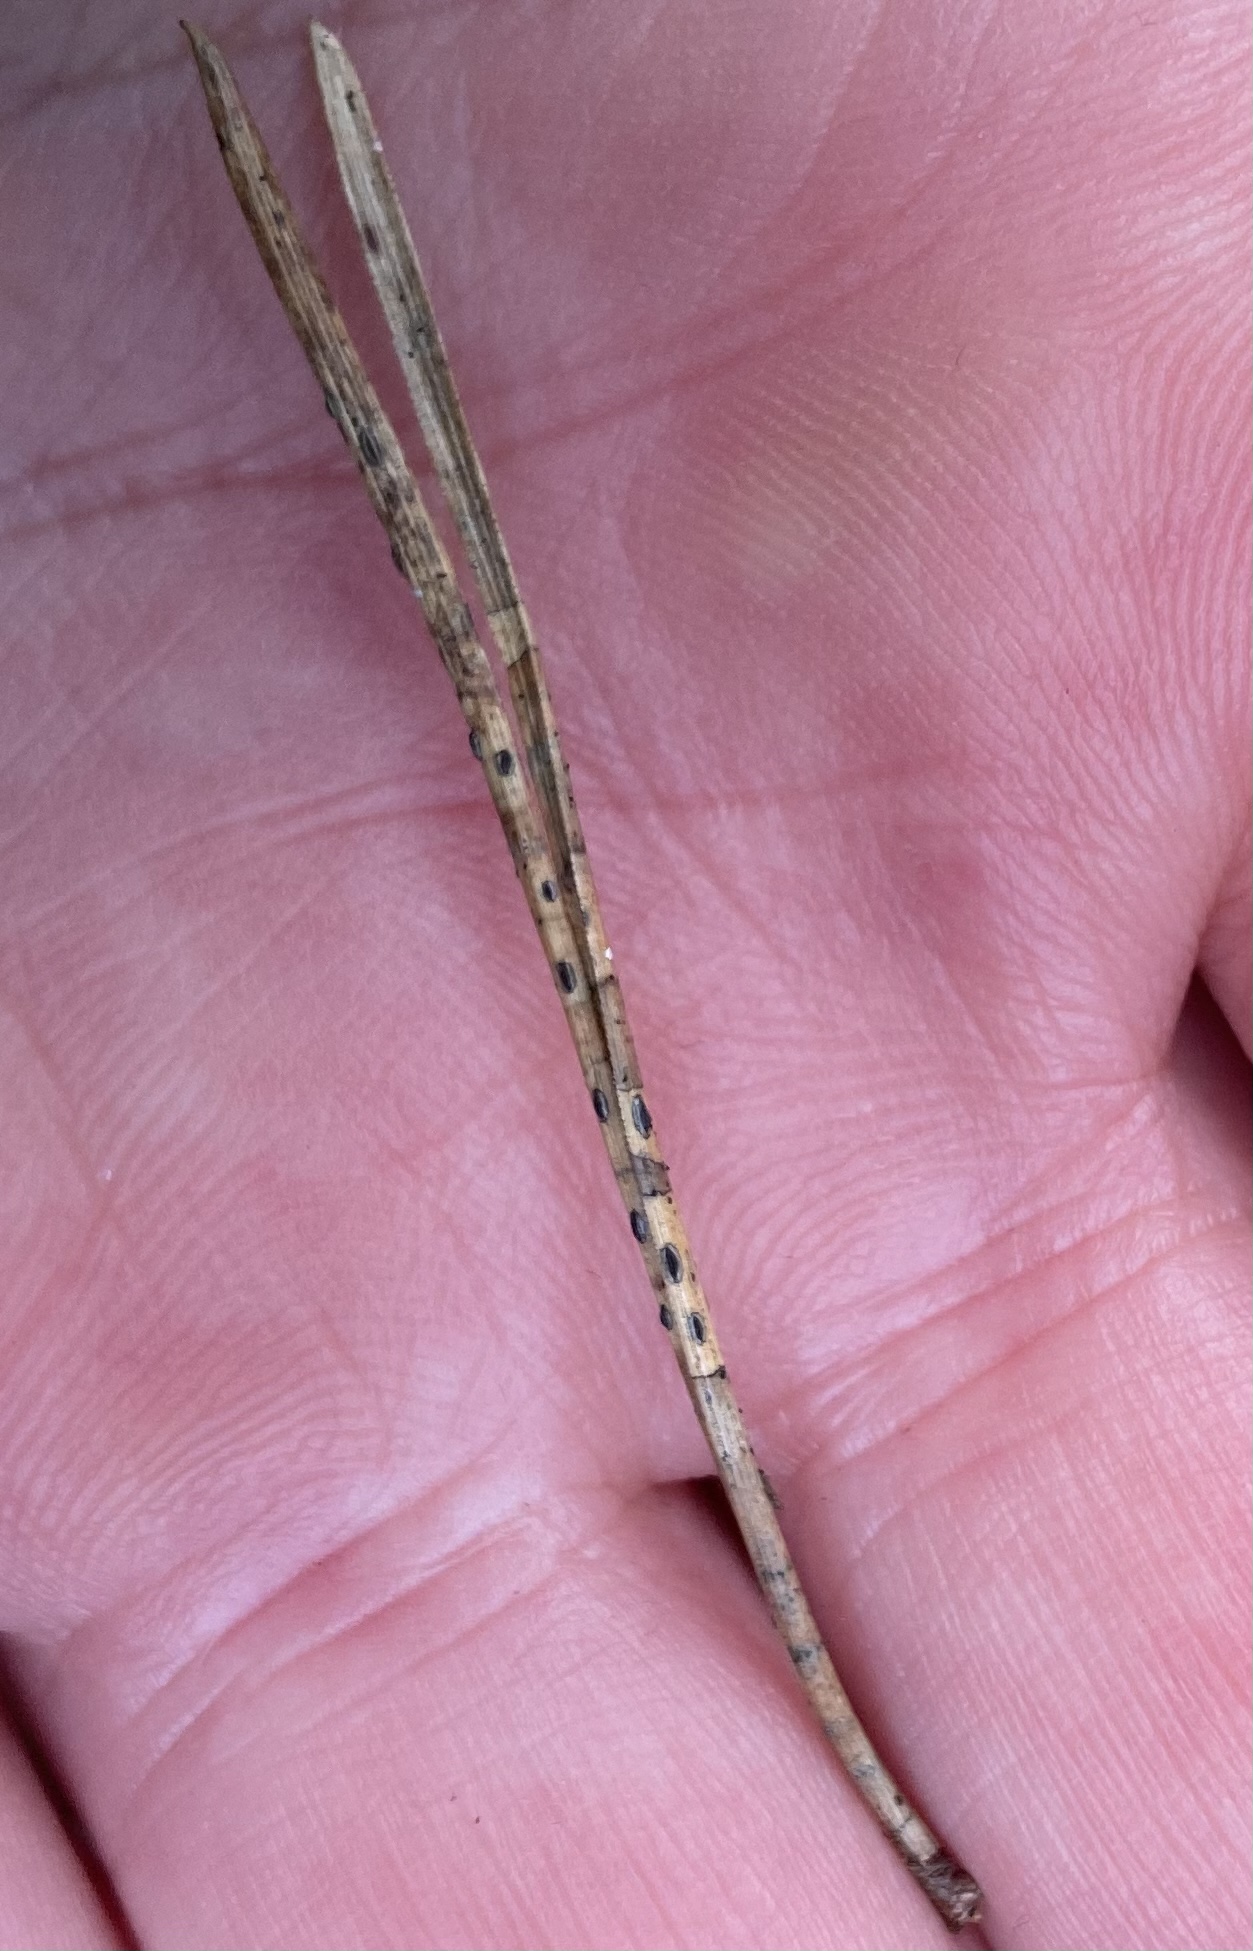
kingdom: Fungi
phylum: Ascomycota
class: Leotiomycetes
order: Rhytismatales
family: Rhytismataceae
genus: Lophodermium
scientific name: Lophodermium pinastri
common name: fyrre-fureplet
